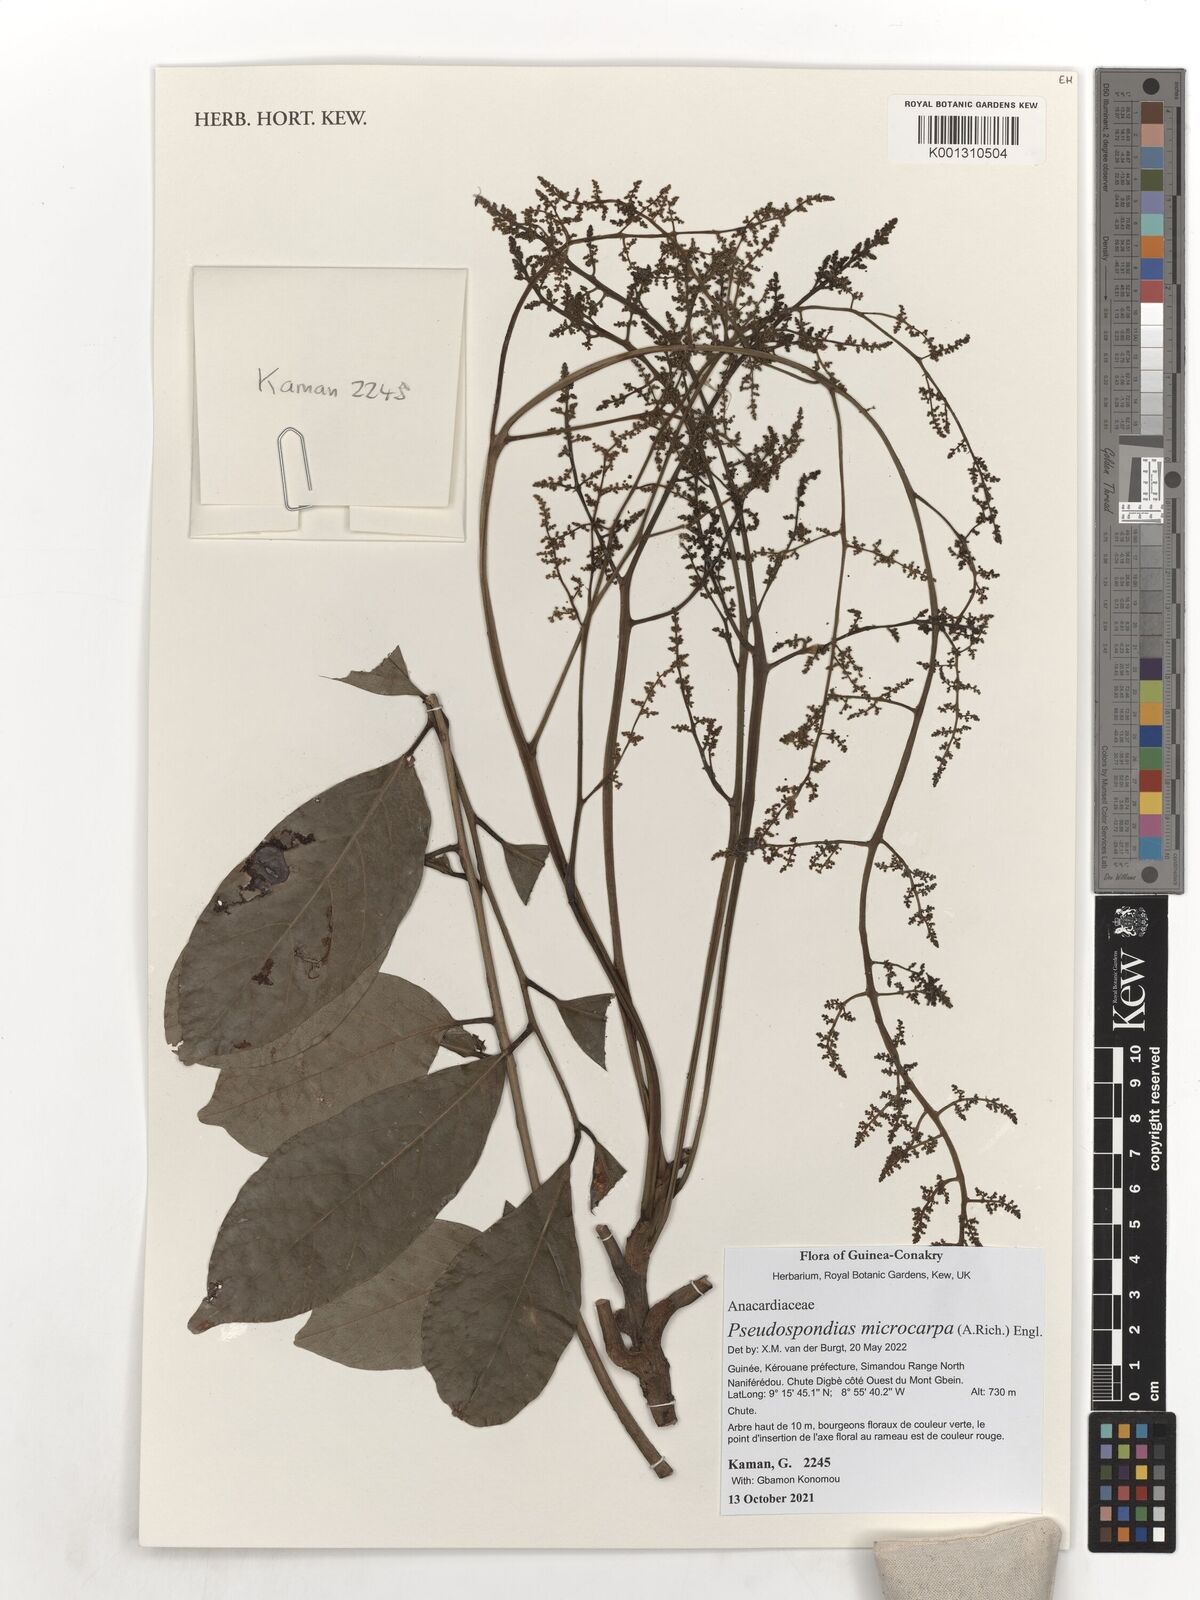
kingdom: Plantae
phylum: Tracheophyta
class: Magnoliopsida
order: Sapindales
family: Anacardiaceae
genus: Pseudospondias
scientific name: Pseudospondias microcarpa
